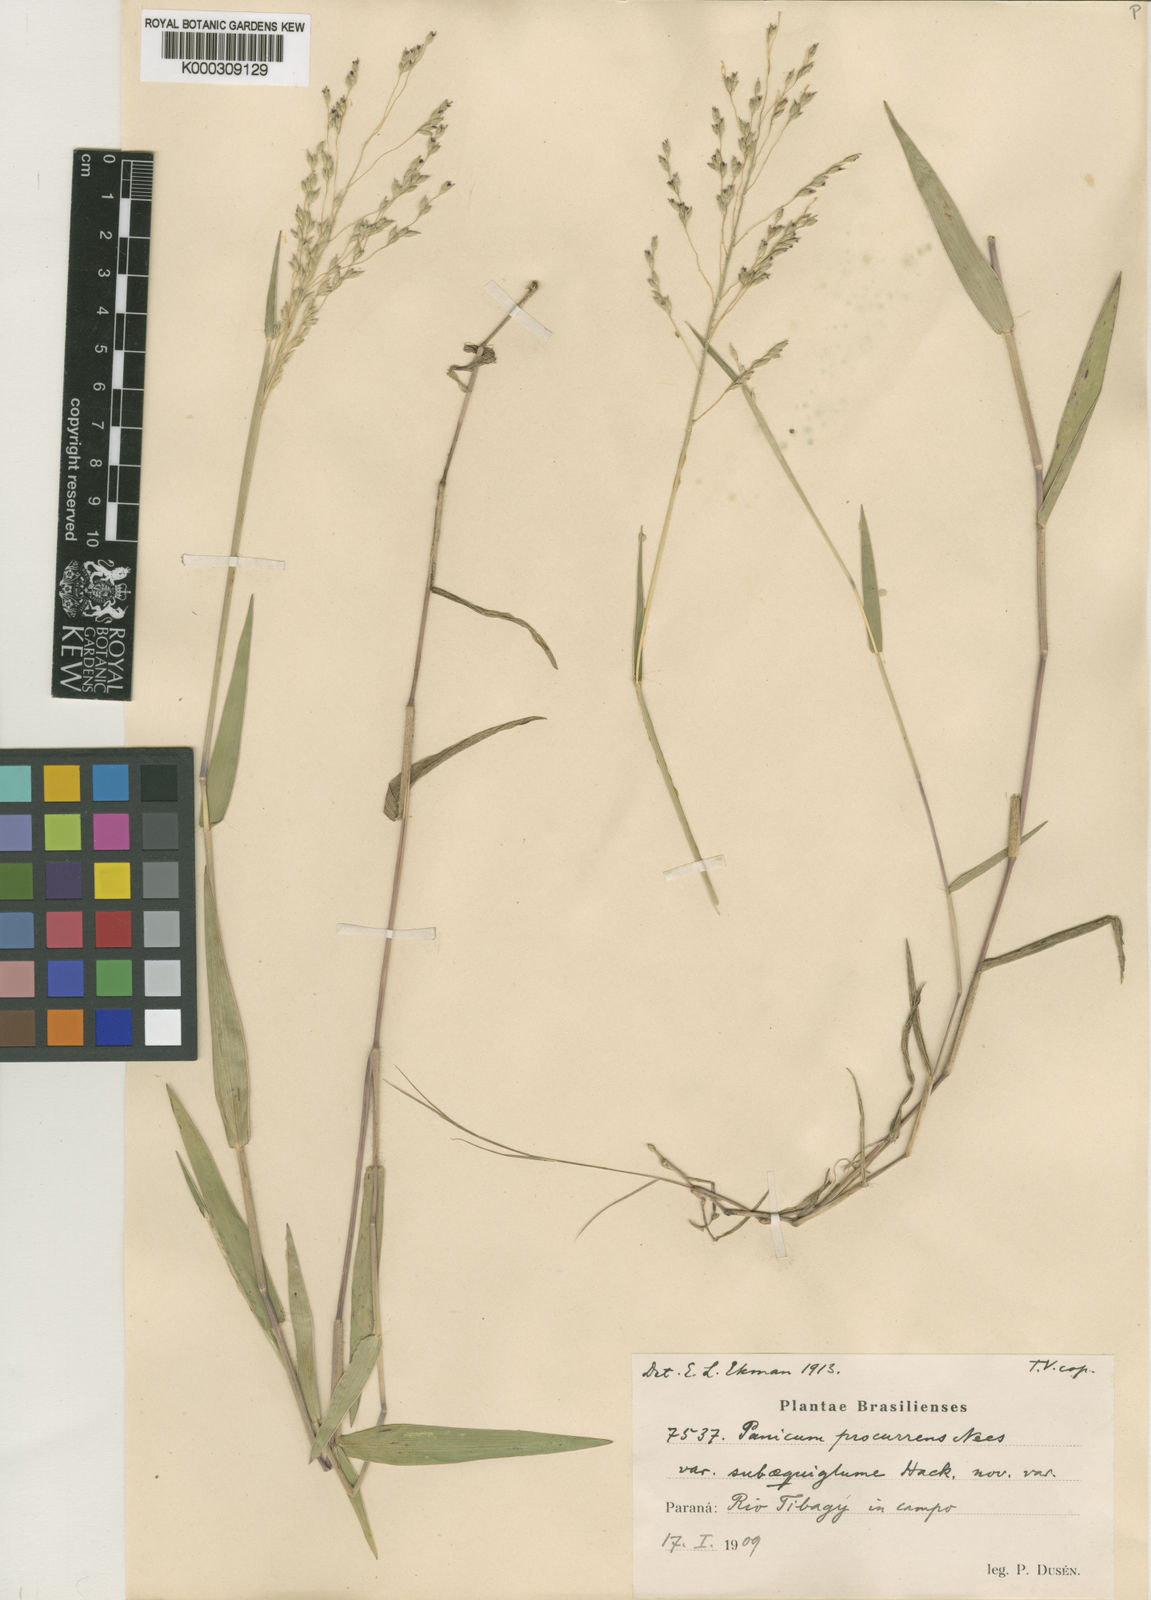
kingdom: Plantae
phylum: Tracheophyta
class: Liliopsida
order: Poales
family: Poaceae
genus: Oedochloa
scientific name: Oedochloa procurrens
